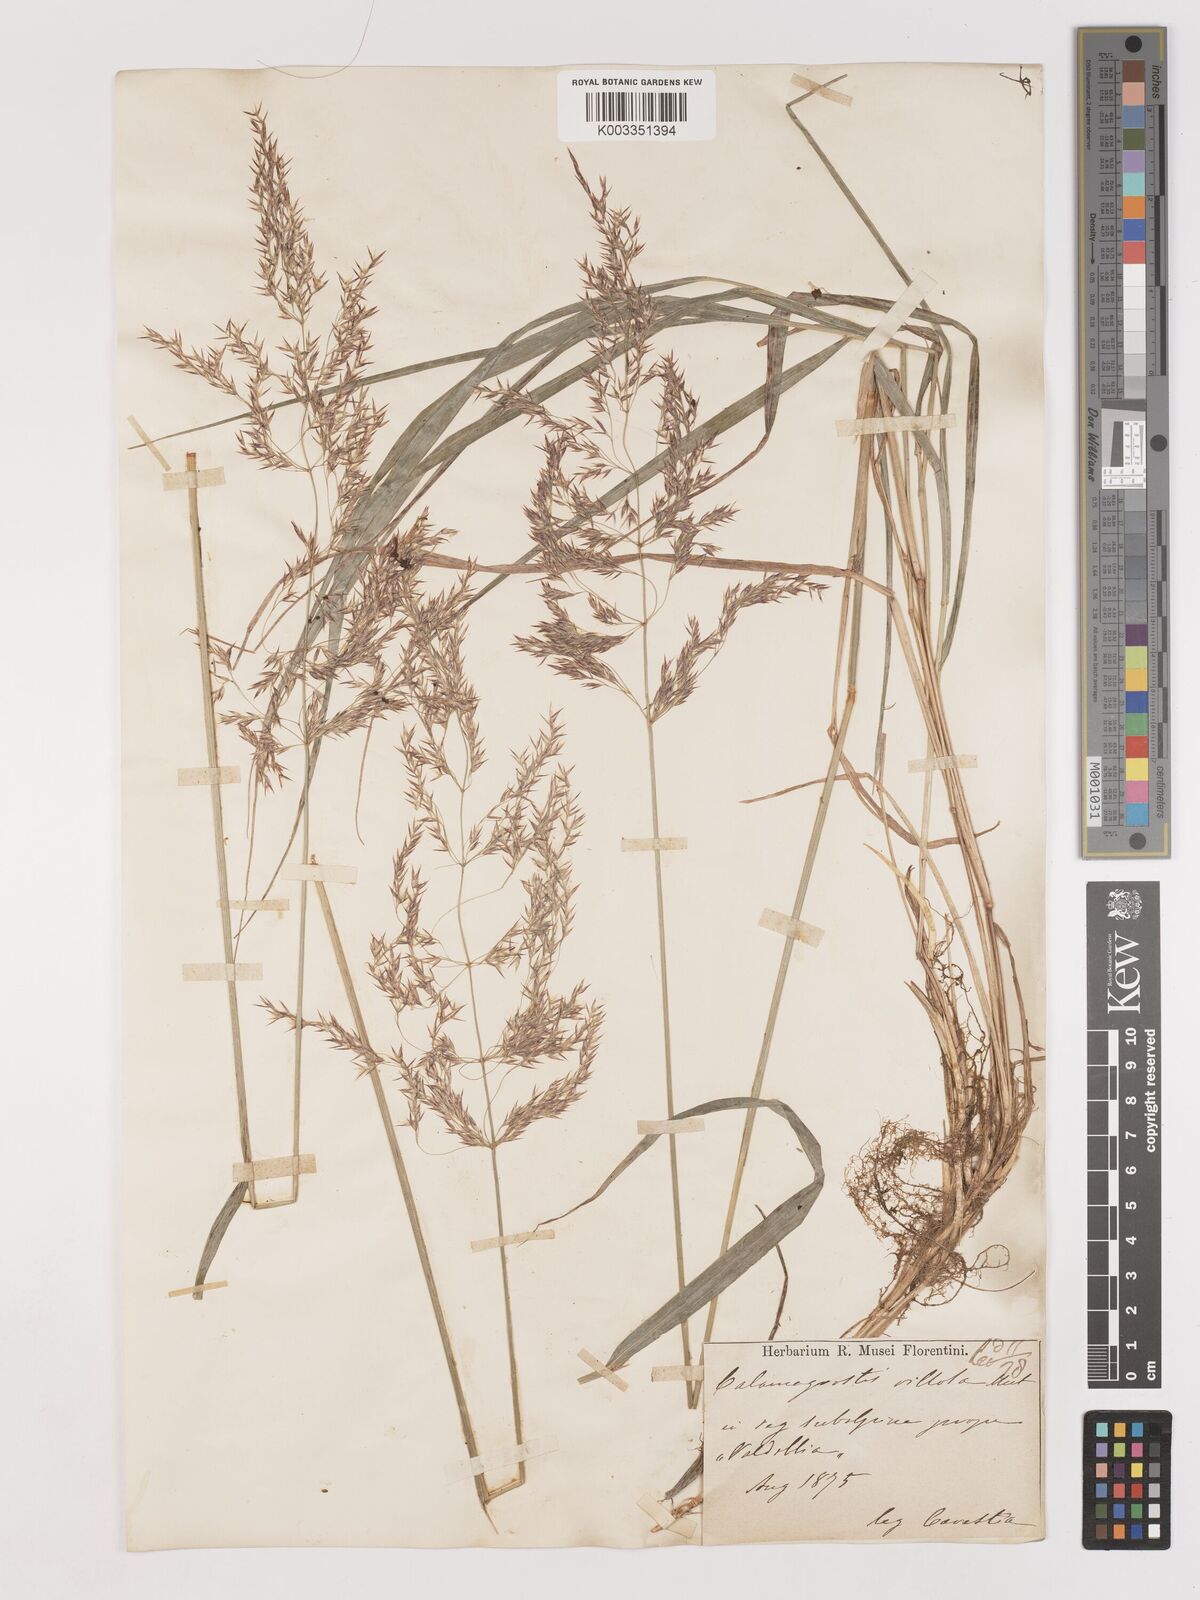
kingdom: Plantae
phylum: Tracheophyta
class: Liliopsida
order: Poales
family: Poaceae
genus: Calamagrostis
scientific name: Calamagrostis pseudophragmites
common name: Coastal small-reed
